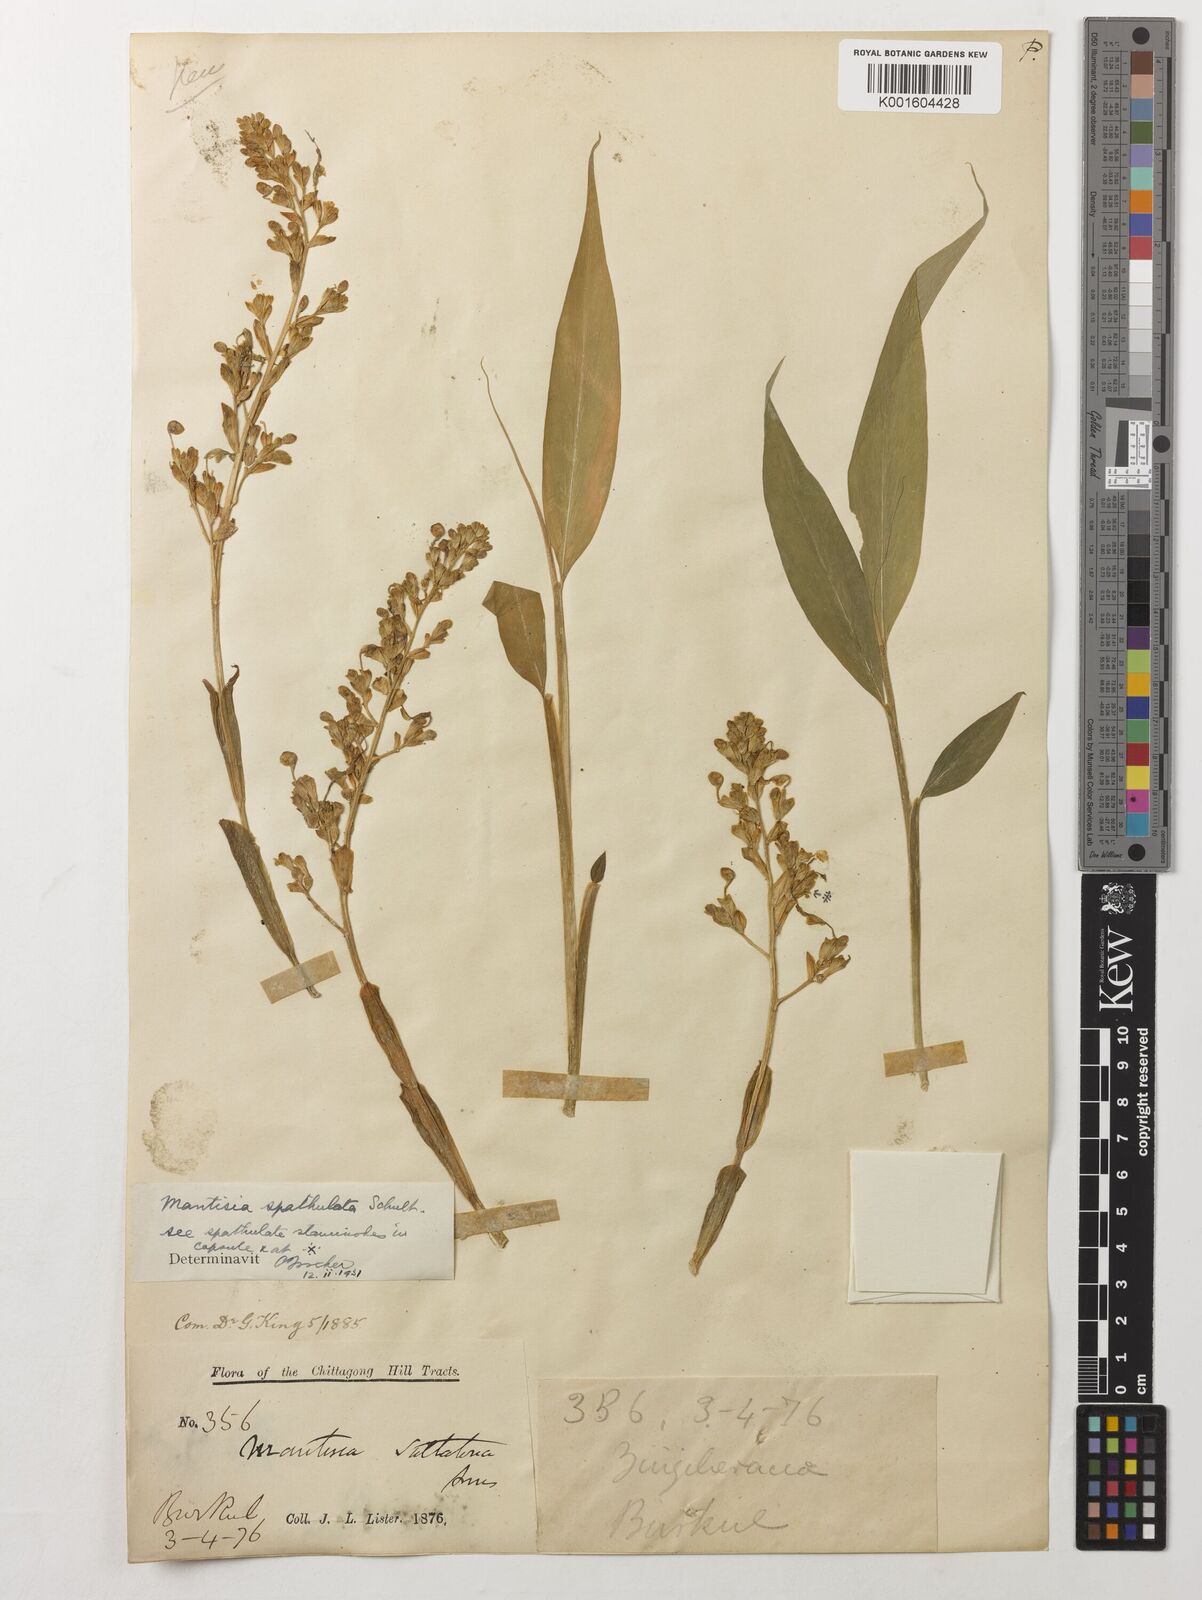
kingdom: Plantae
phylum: Tracheophyta
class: Liliopsida
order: Zingiberales
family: Zingiberaceae
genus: Globba
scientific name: Globba spathulata
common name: Dancing girl flower
